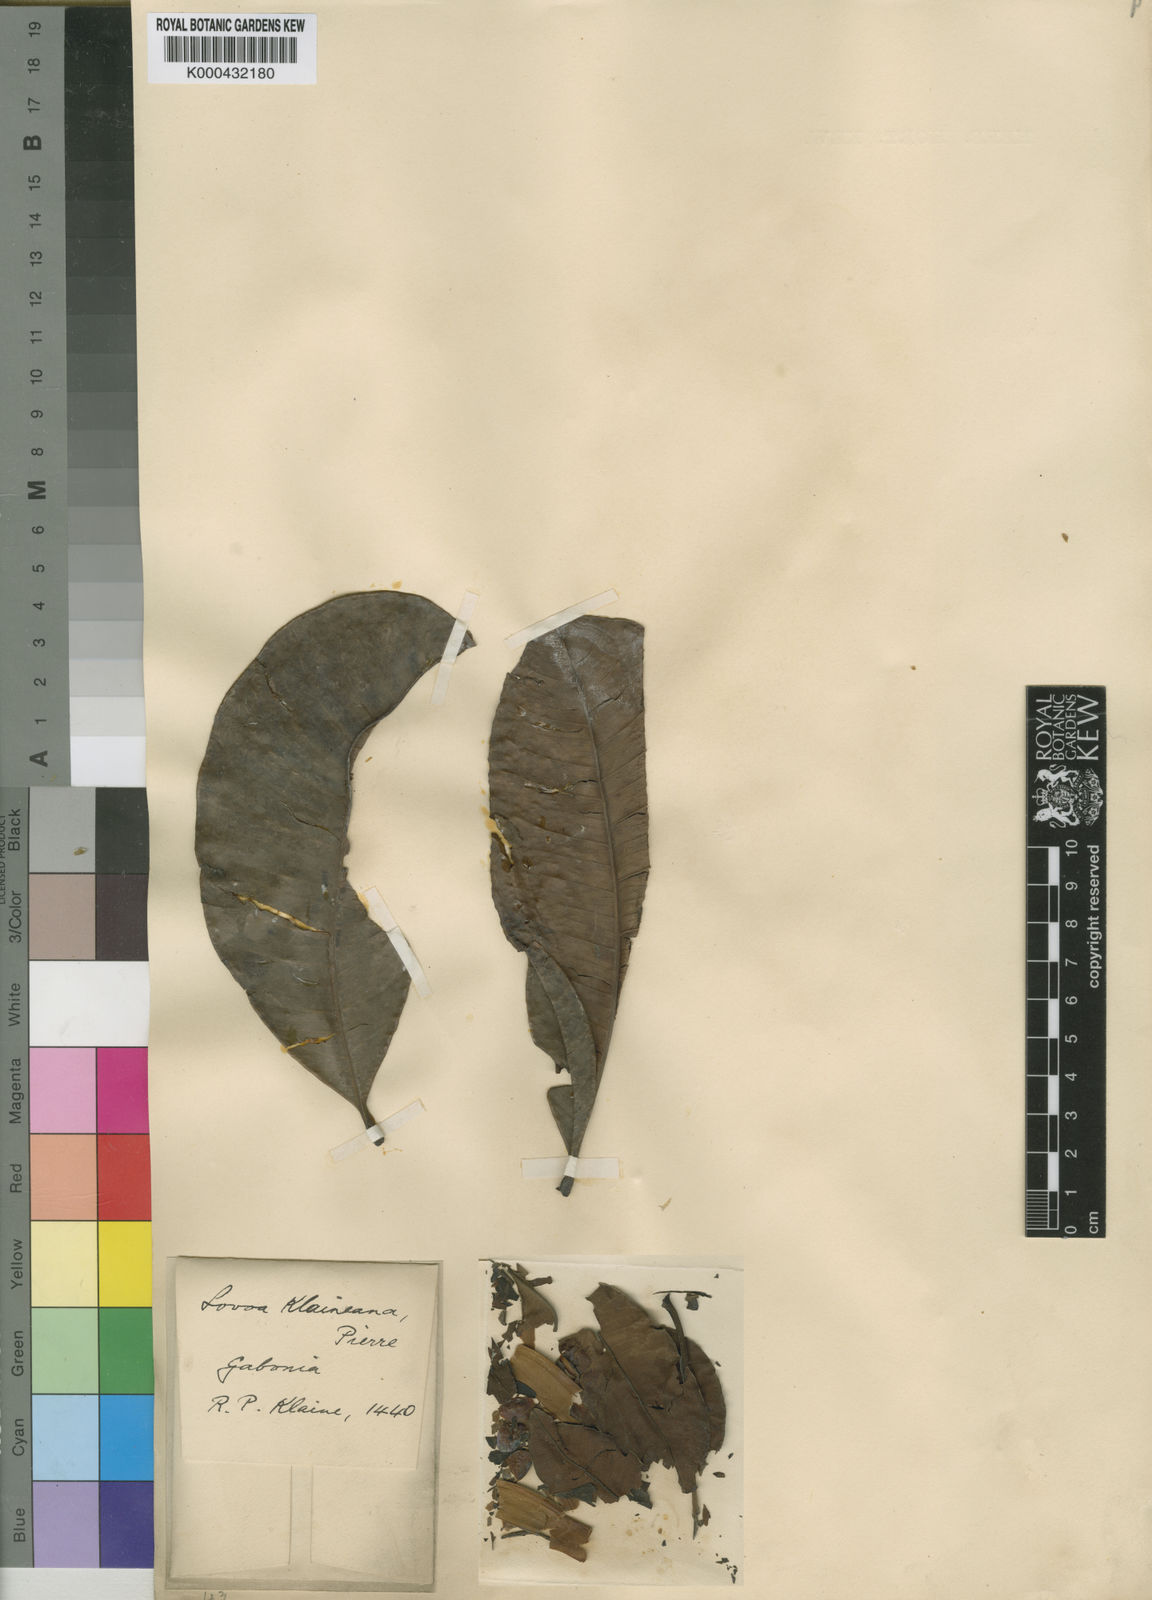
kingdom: Plantae
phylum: Tracheophyta
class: Magnoliopsida
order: Sapindales
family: Meliaceae
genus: Lovoa
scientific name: Lovoa trichilioides
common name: Congowood
